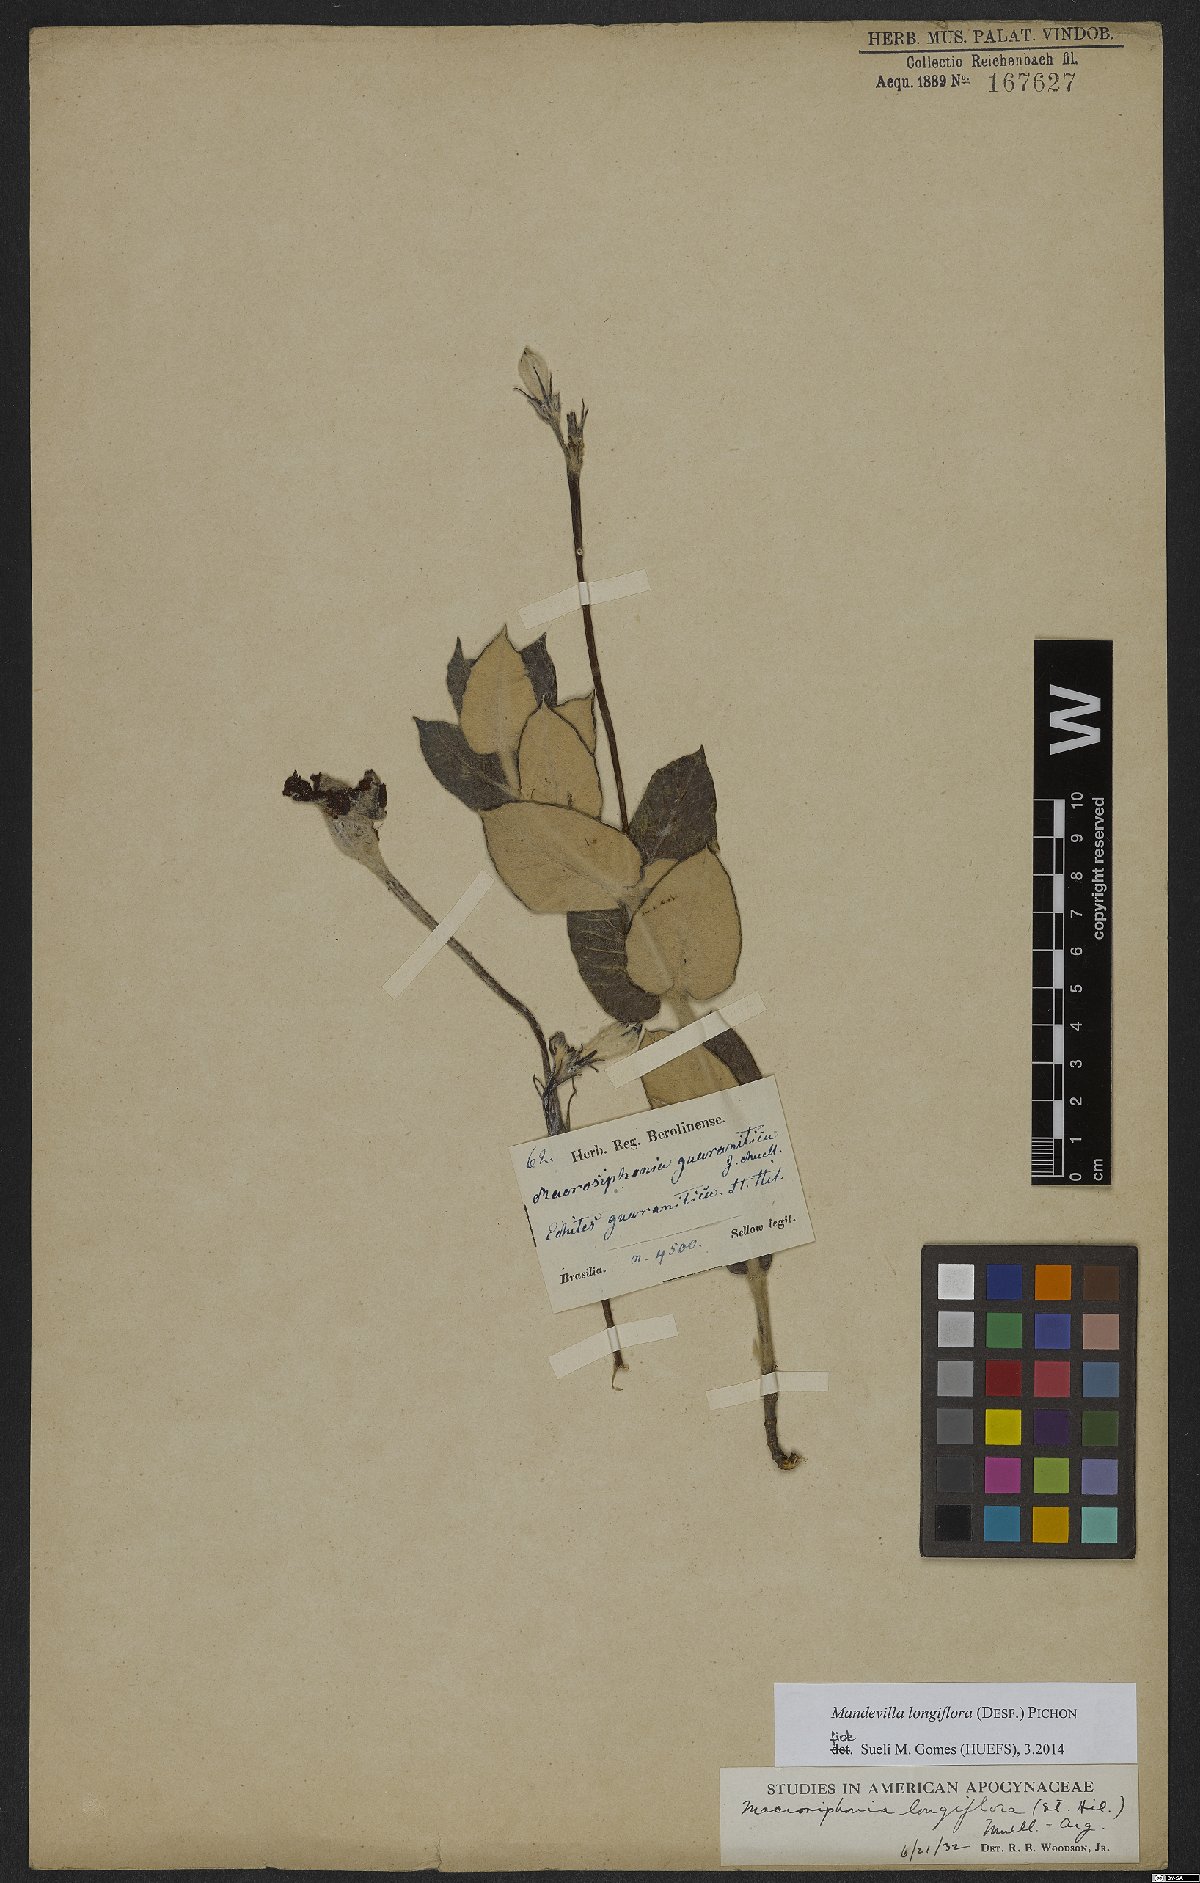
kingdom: Plantae
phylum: Tracheophyta
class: Magnoliopsida
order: Gentianales
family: Apocynaceae
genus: Mandevilla
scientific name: Mandevilla longiflora
